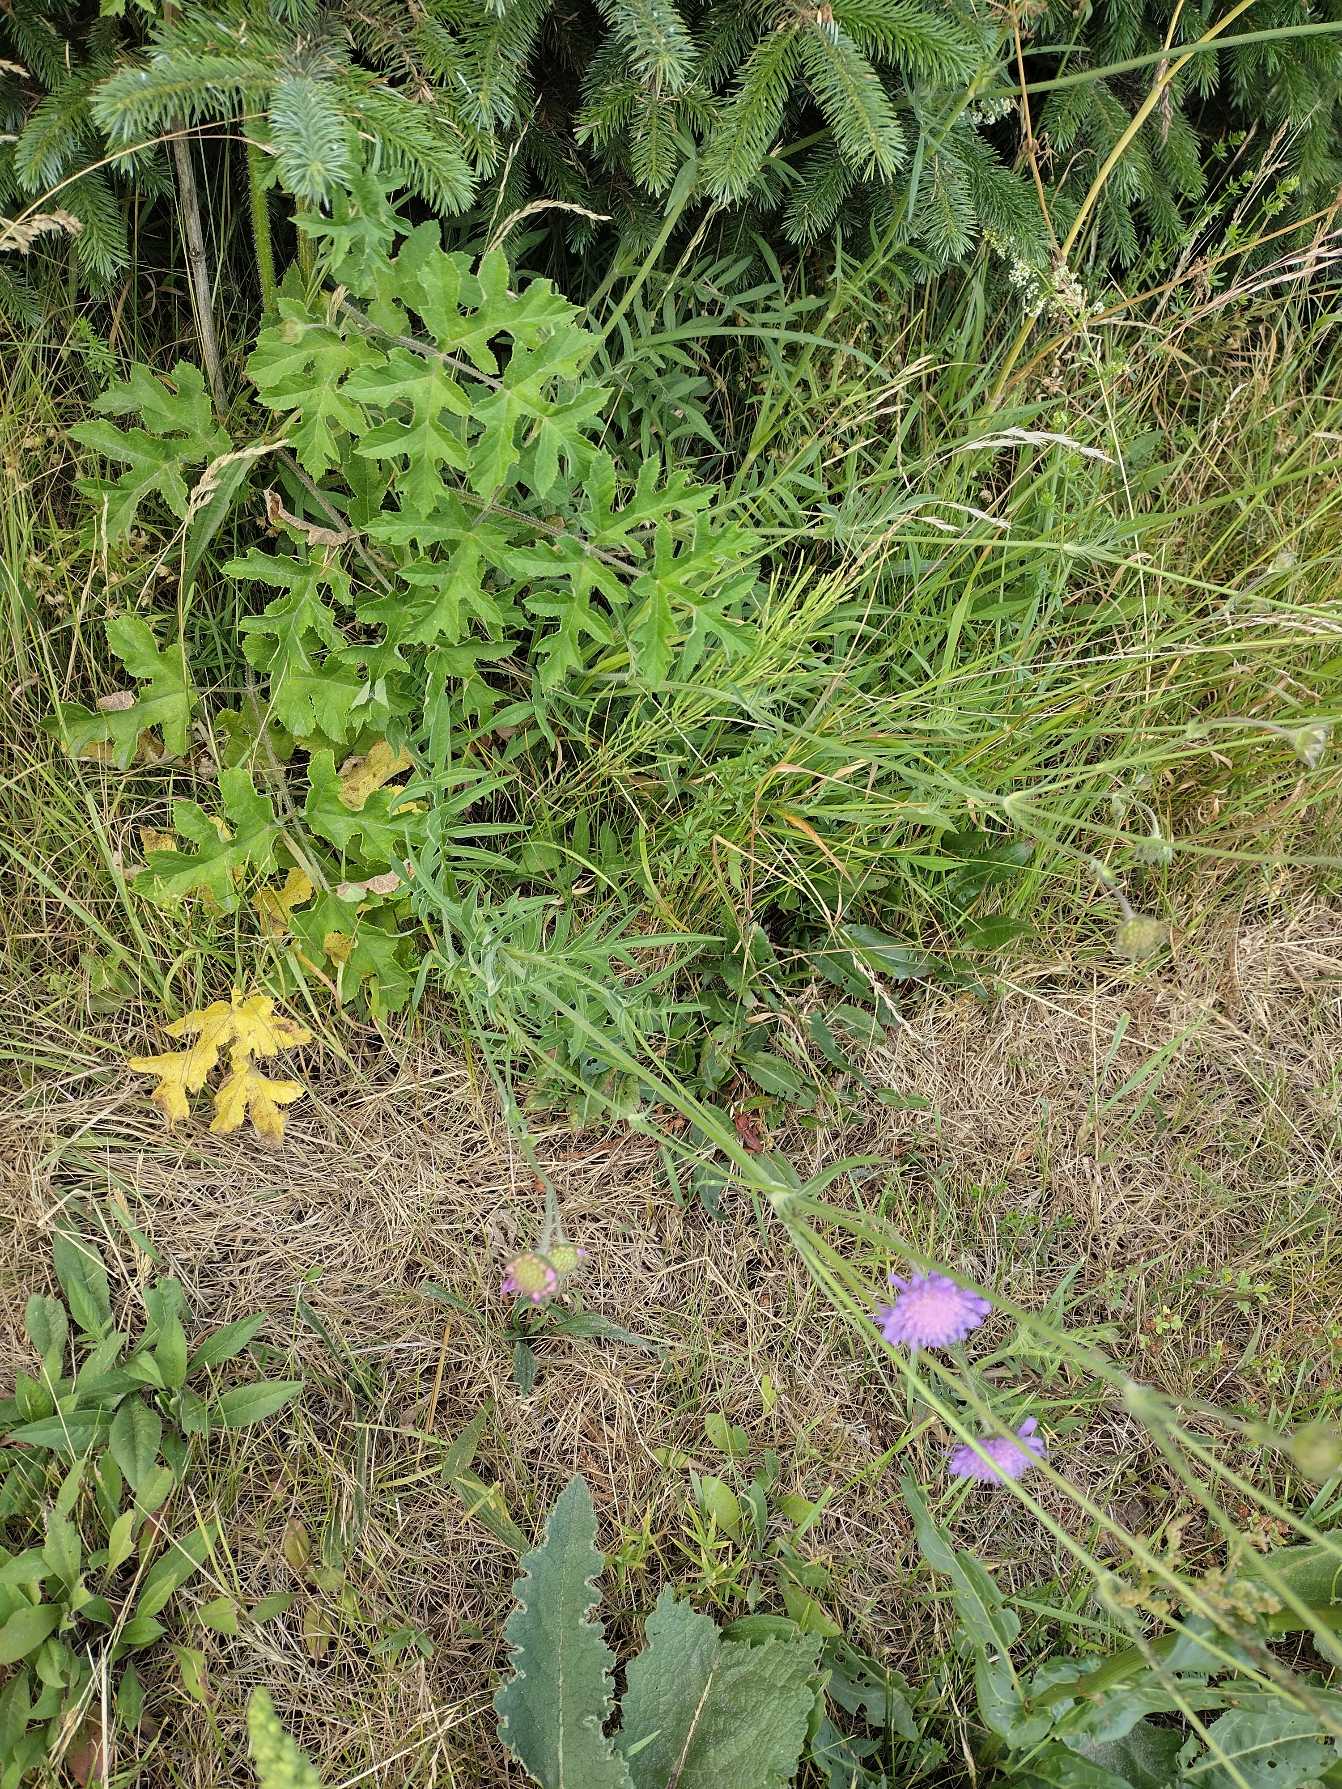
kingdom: Plantae
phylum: Tracheophyta
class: Magnoliopsida
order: Dipsacales
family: Caprifoliaceae
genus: Knautia
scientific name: Knautia arvensis
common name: Blåhat
